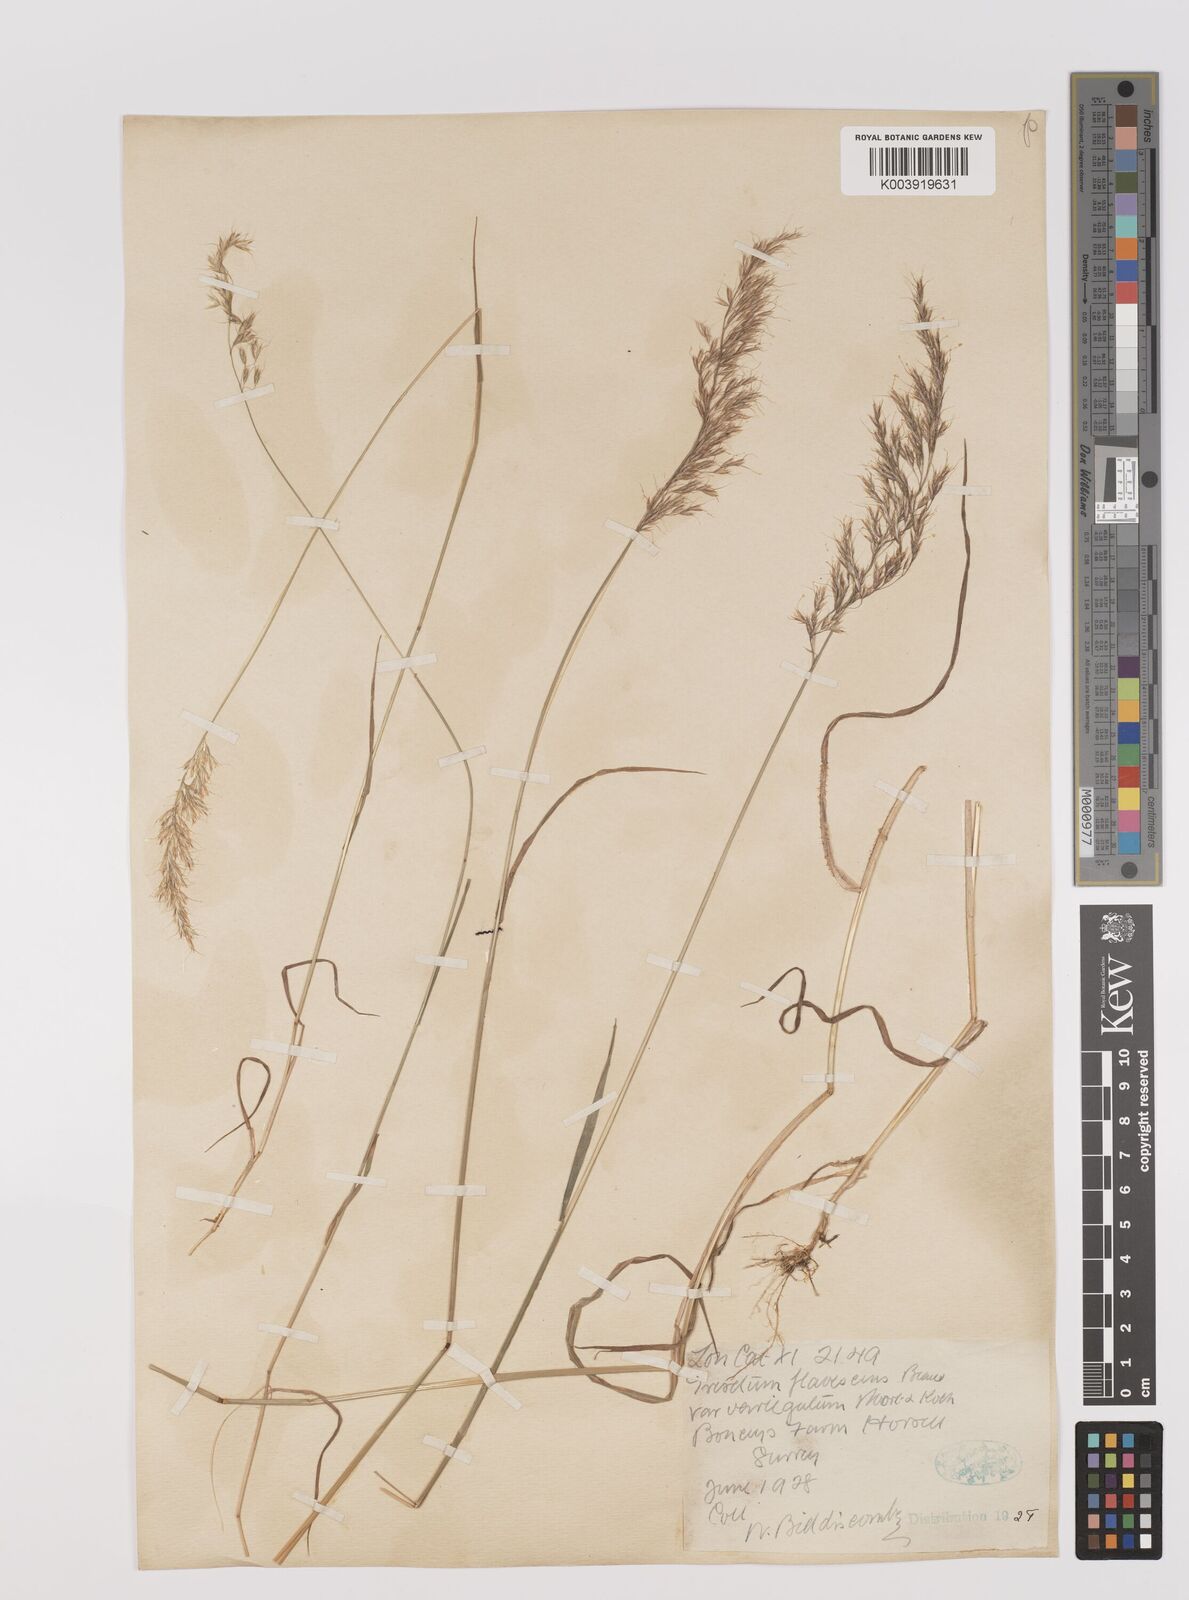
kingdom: Plantae
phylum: Tracheophyta
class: Liliopsida
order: Poales
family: Poaceae
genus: Trisetum
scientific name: Trisetum flavescens
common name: Yellow oat-grass
